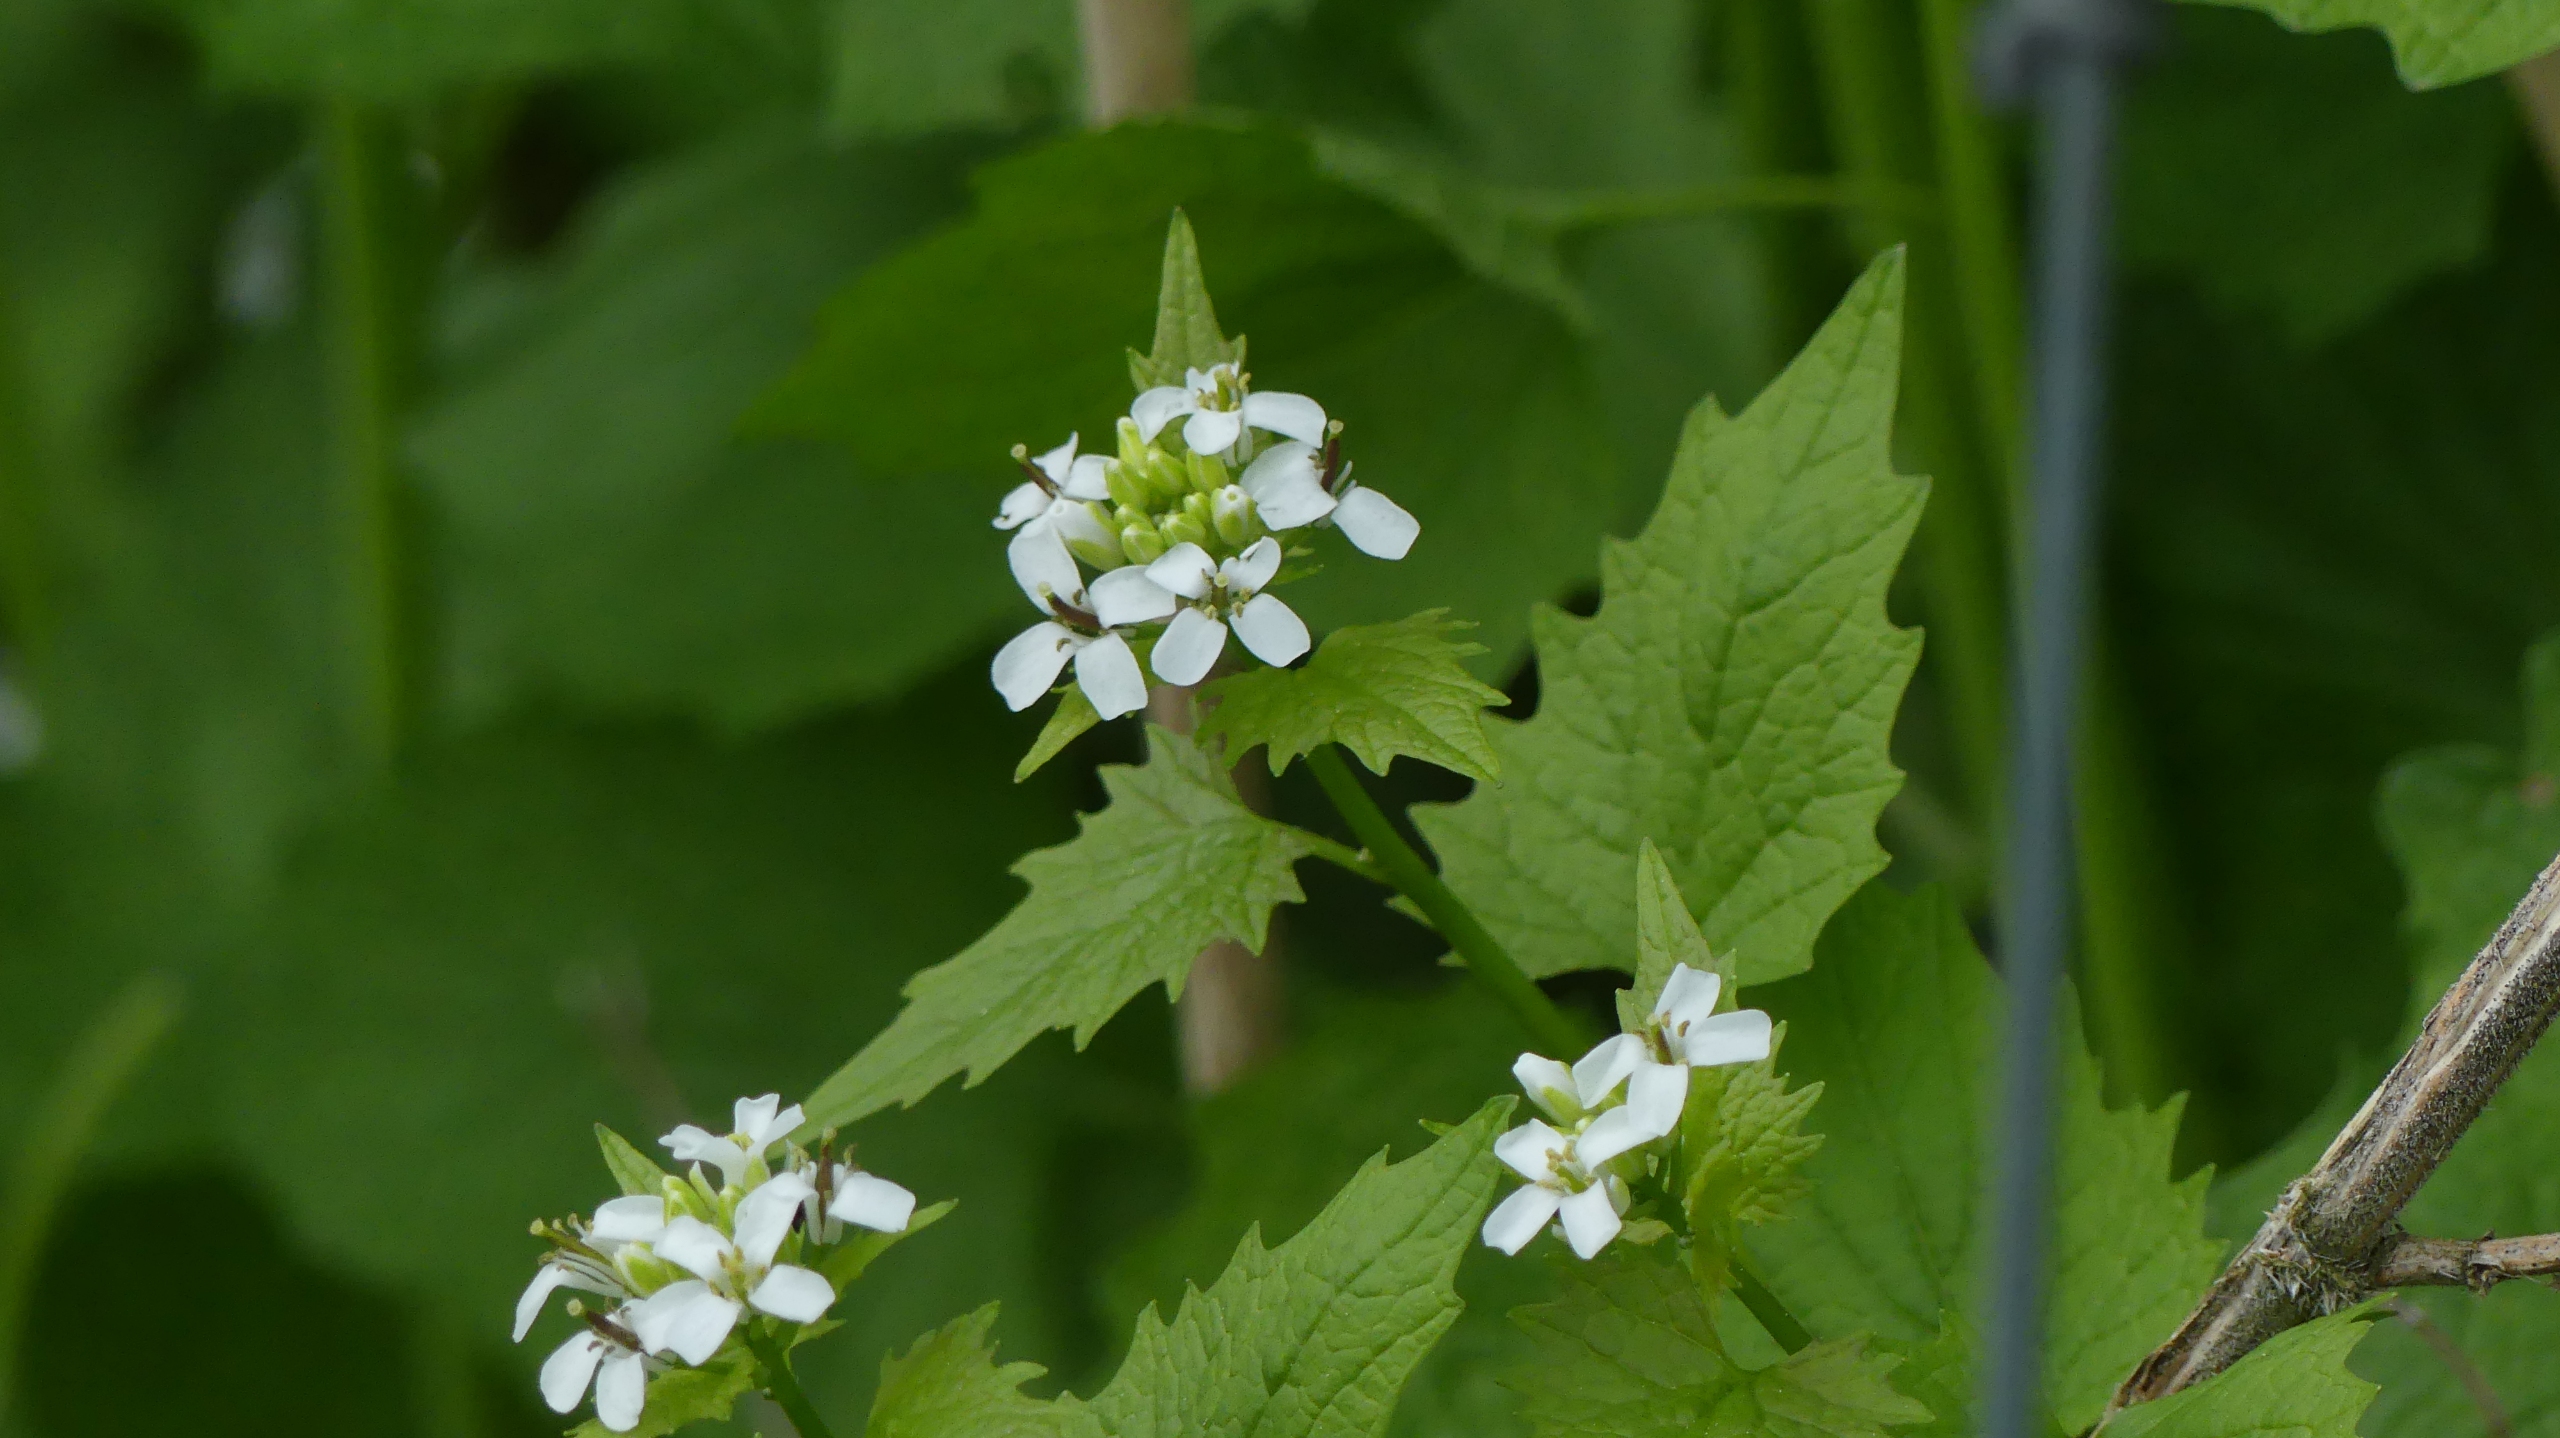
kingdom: Plantae
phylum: Tracheophyta
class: Magnoliopsida
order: Brassicales
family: Brassicaceae
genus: Alliaria
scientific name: Alliaria petiolata
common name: Løgkarse
